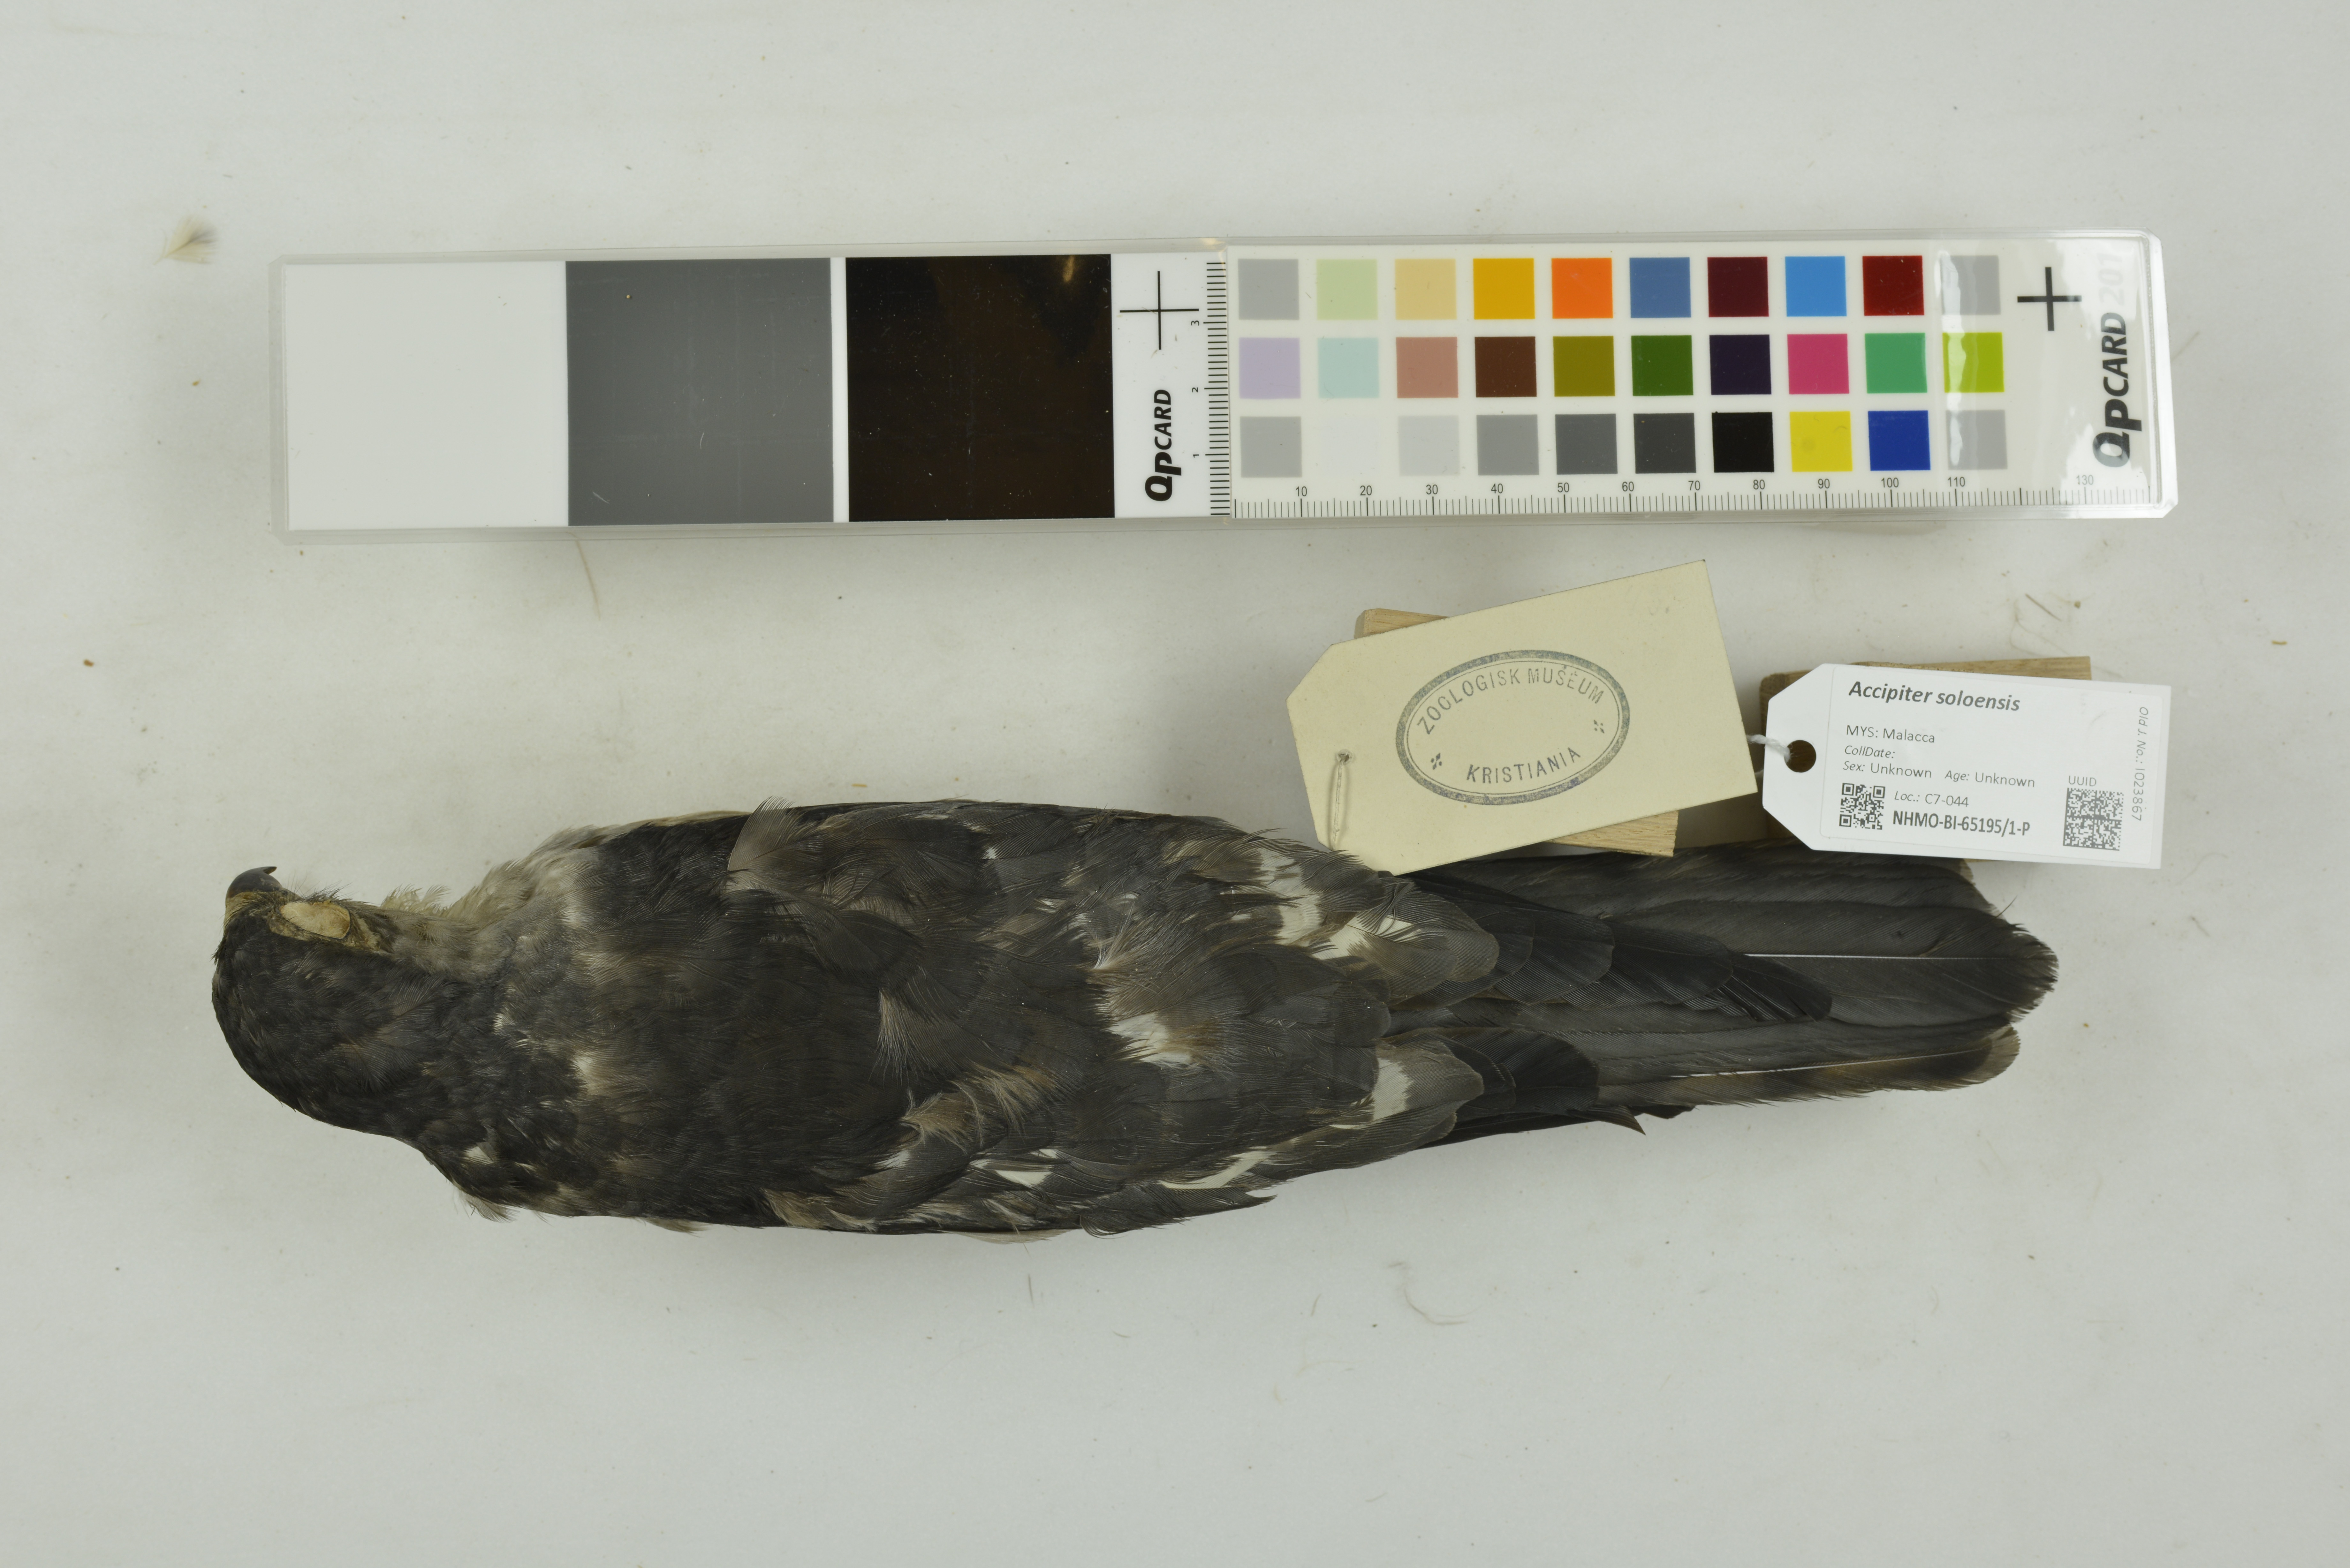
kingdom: Animalia
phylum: Chordata
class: Aves
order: Accipitriformes
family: Accipitridae
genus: Accipiter
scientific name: Accipiter soloensis
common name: Chinese sparrowhawk
